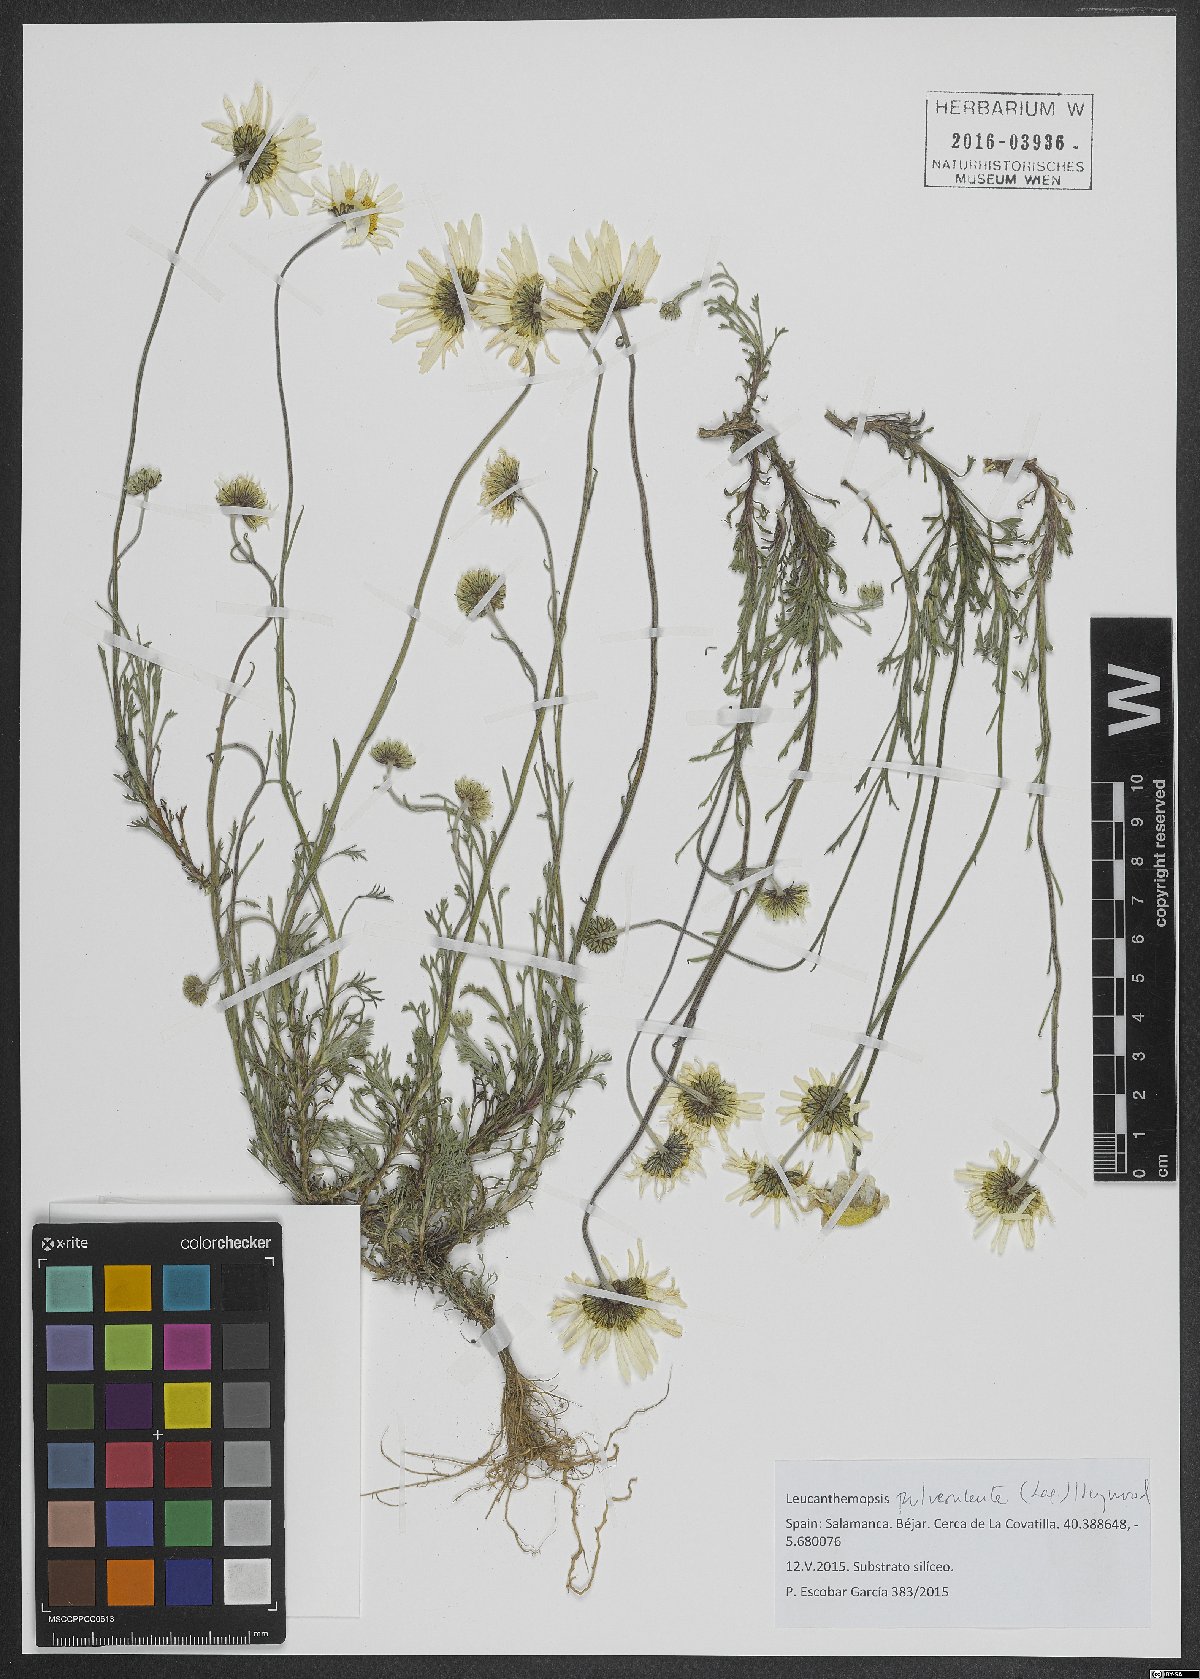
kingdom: Plantae
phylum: Tracheophyta
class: Magnoliopsida
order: Asterales
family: Asteraceae
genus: Leucanthemopsis
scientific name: Leucanthemopsis pulverulenta
